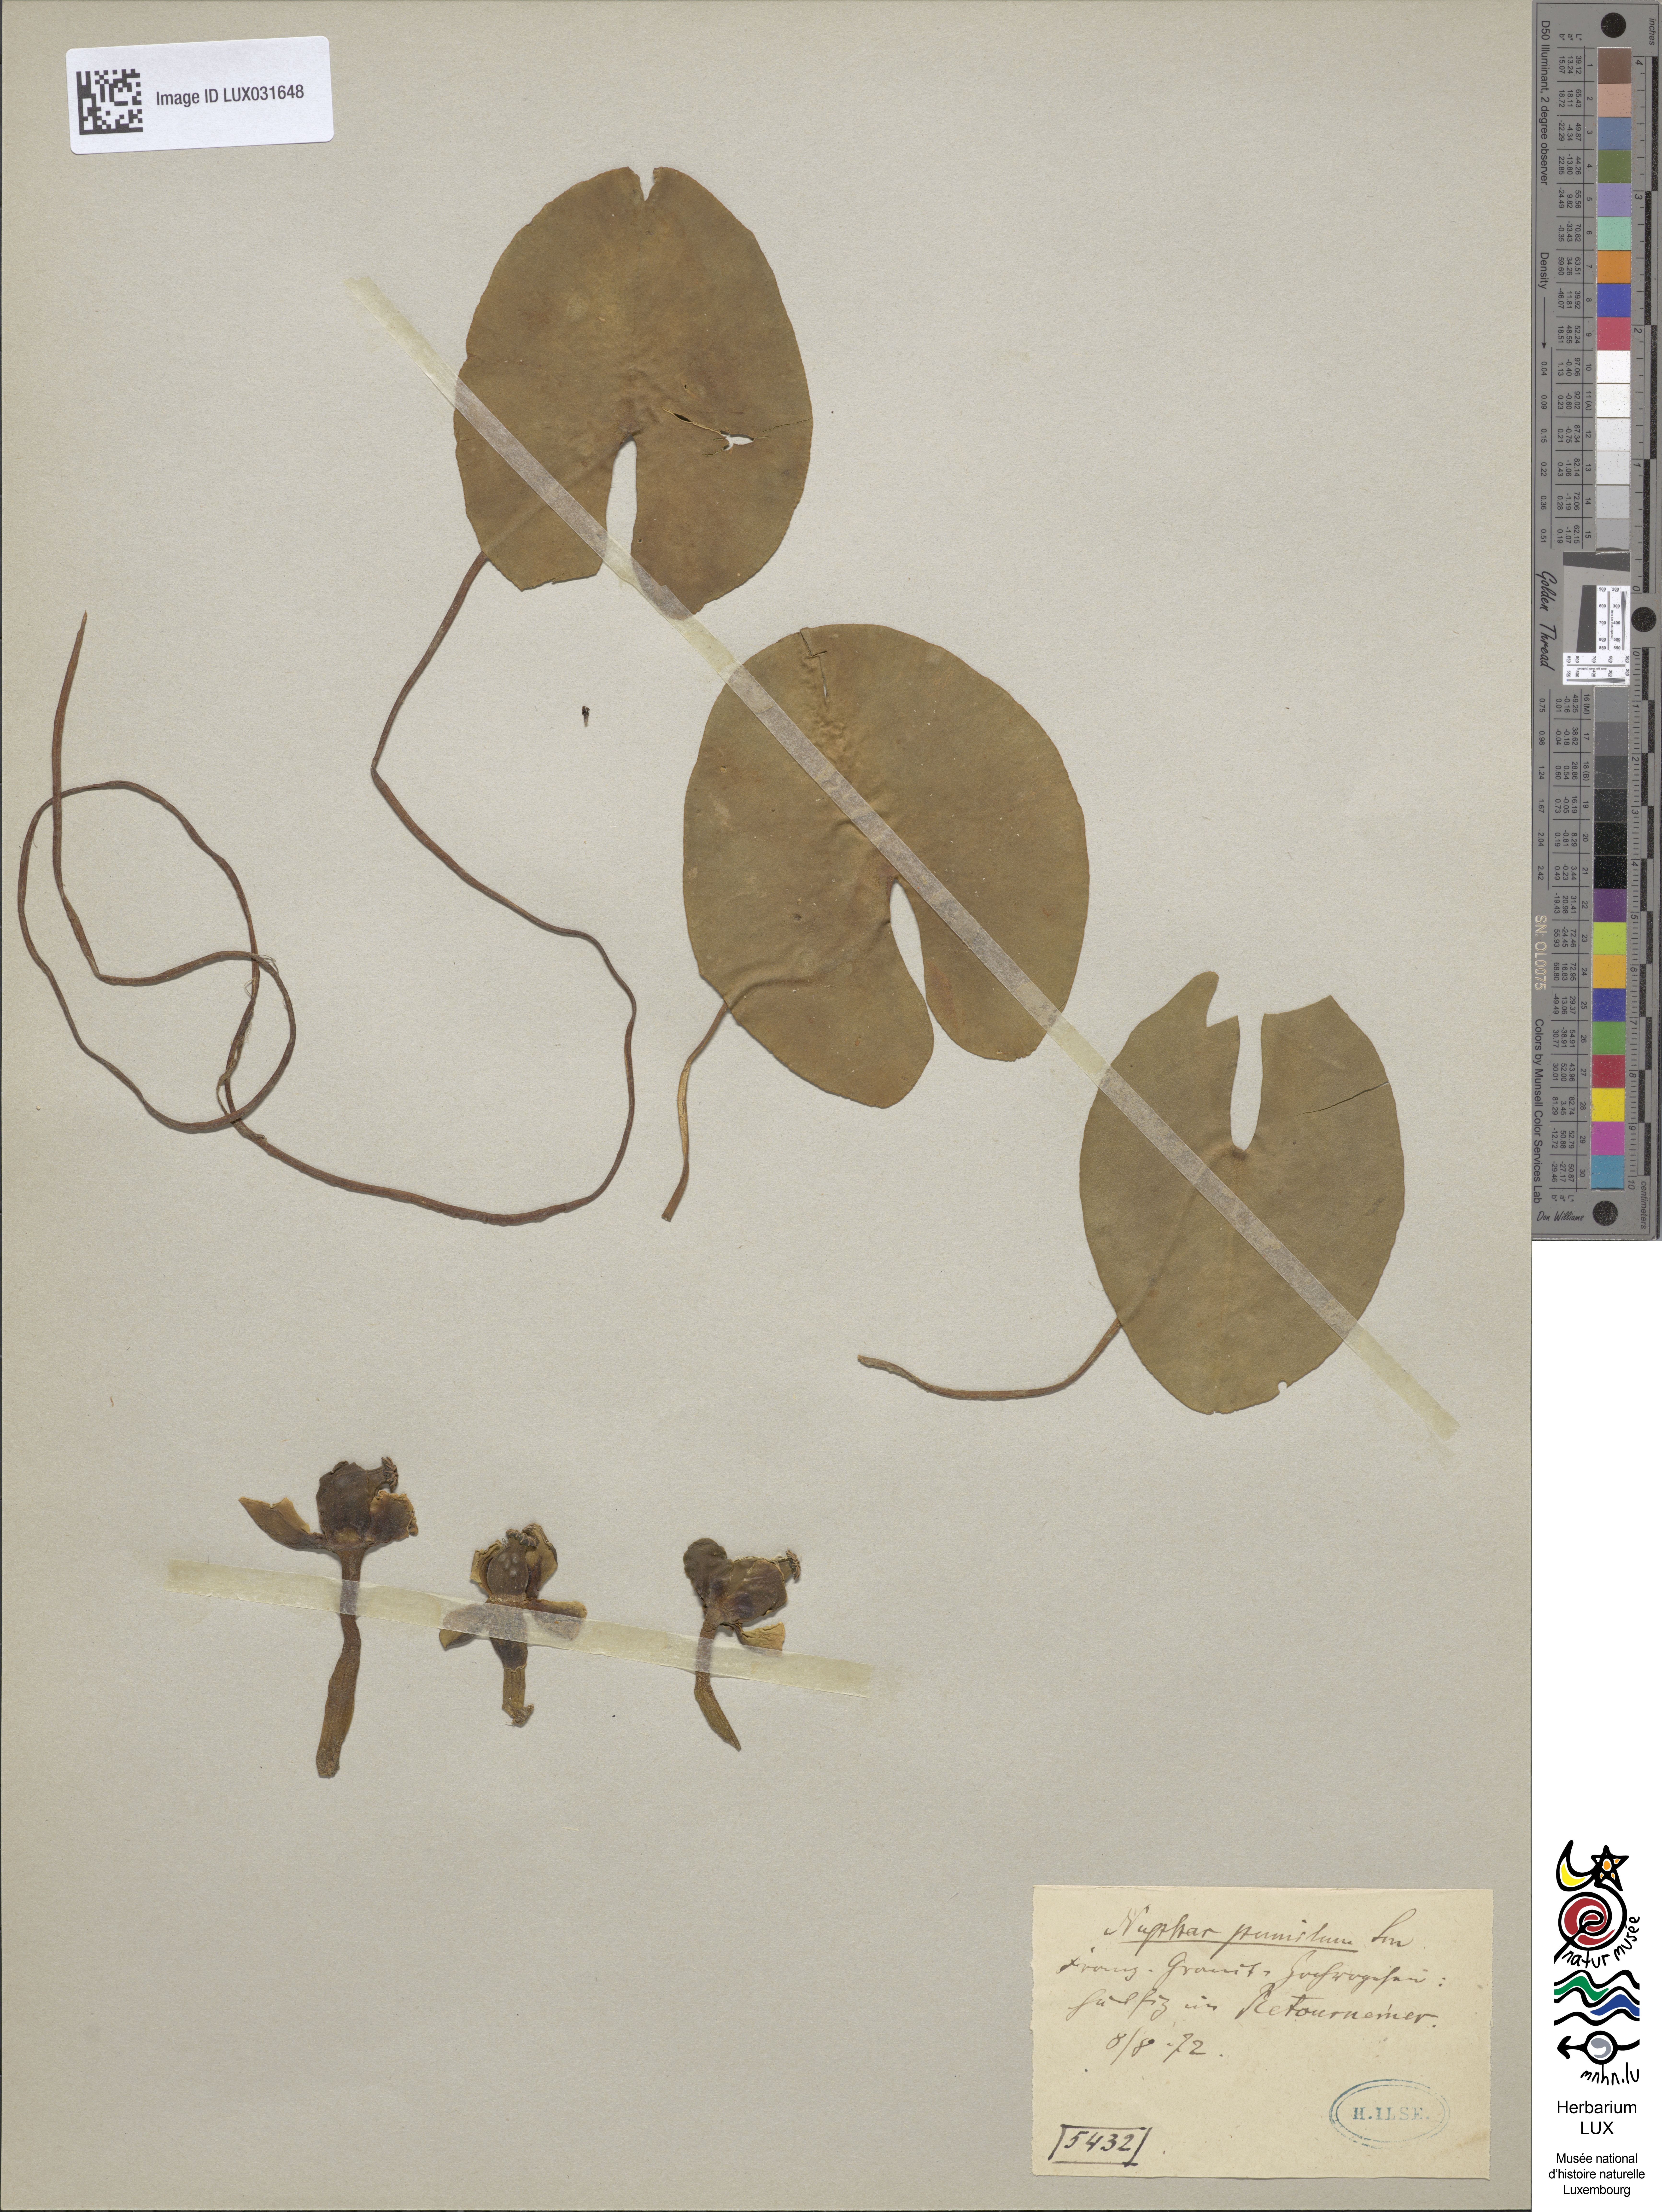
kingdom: Plantae
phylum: Tracheophyta
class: Magnoliopsida
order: Nymphaeales
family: Nymphaeaceae
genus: Nuphar
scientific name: Nuphar pumila
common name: Least water-lily
